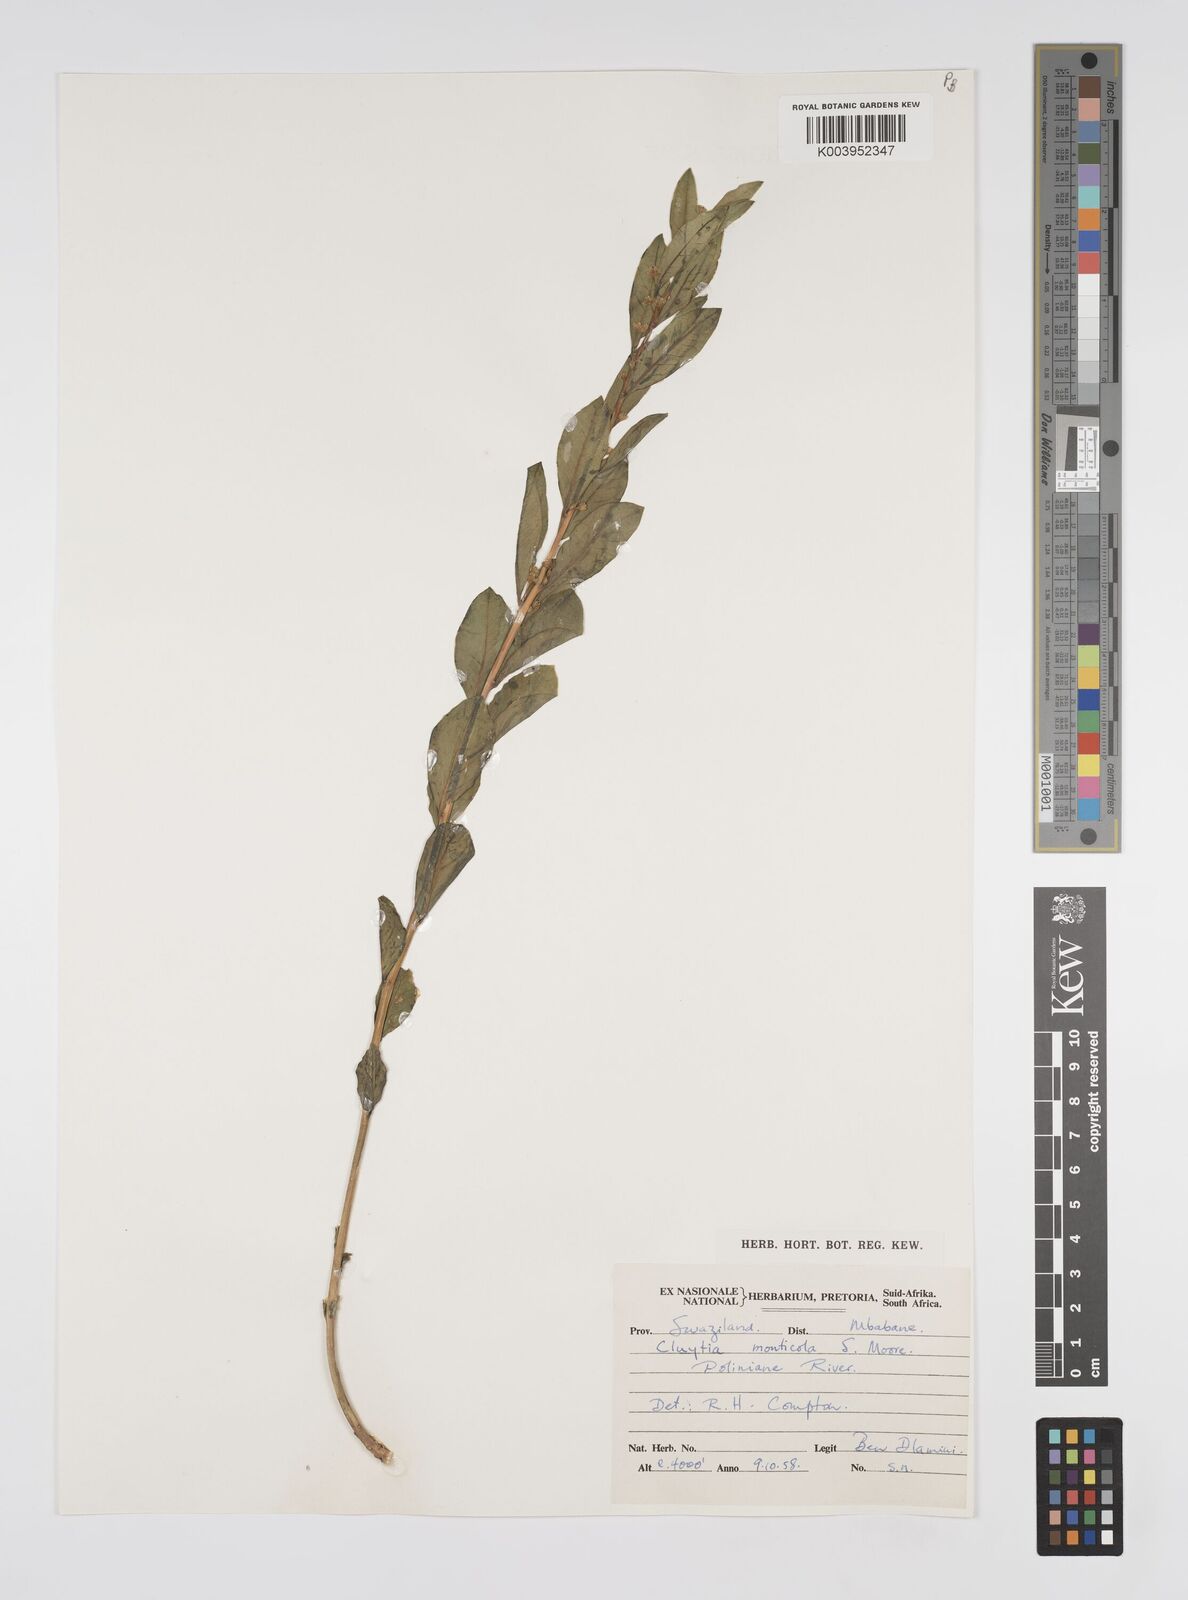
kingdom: Plantae
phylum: Tracheophyta
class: Magnoliopsida
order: Malpighiales
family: Peraceae
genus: Clutia
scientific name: Clutia monticola
